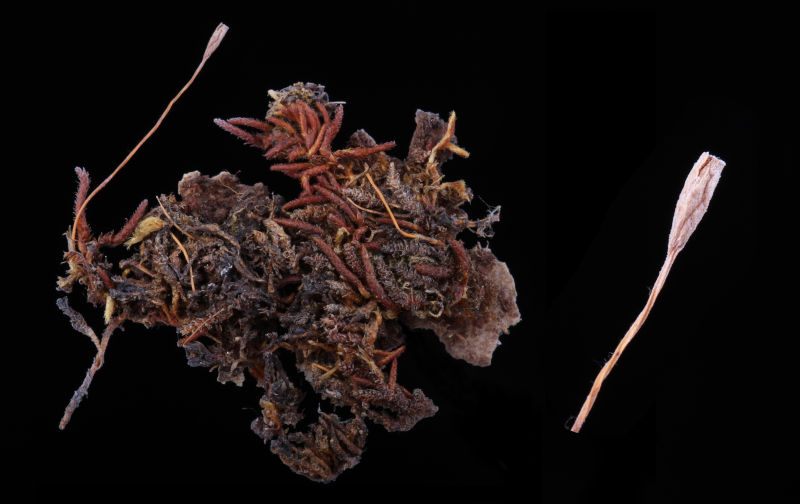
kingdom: Plantae
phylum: Bryophyta
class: Bryopsida
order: Hypnales
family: Entodontaceae
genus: Erythrodontium
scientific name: Erythrodontium julaceum
